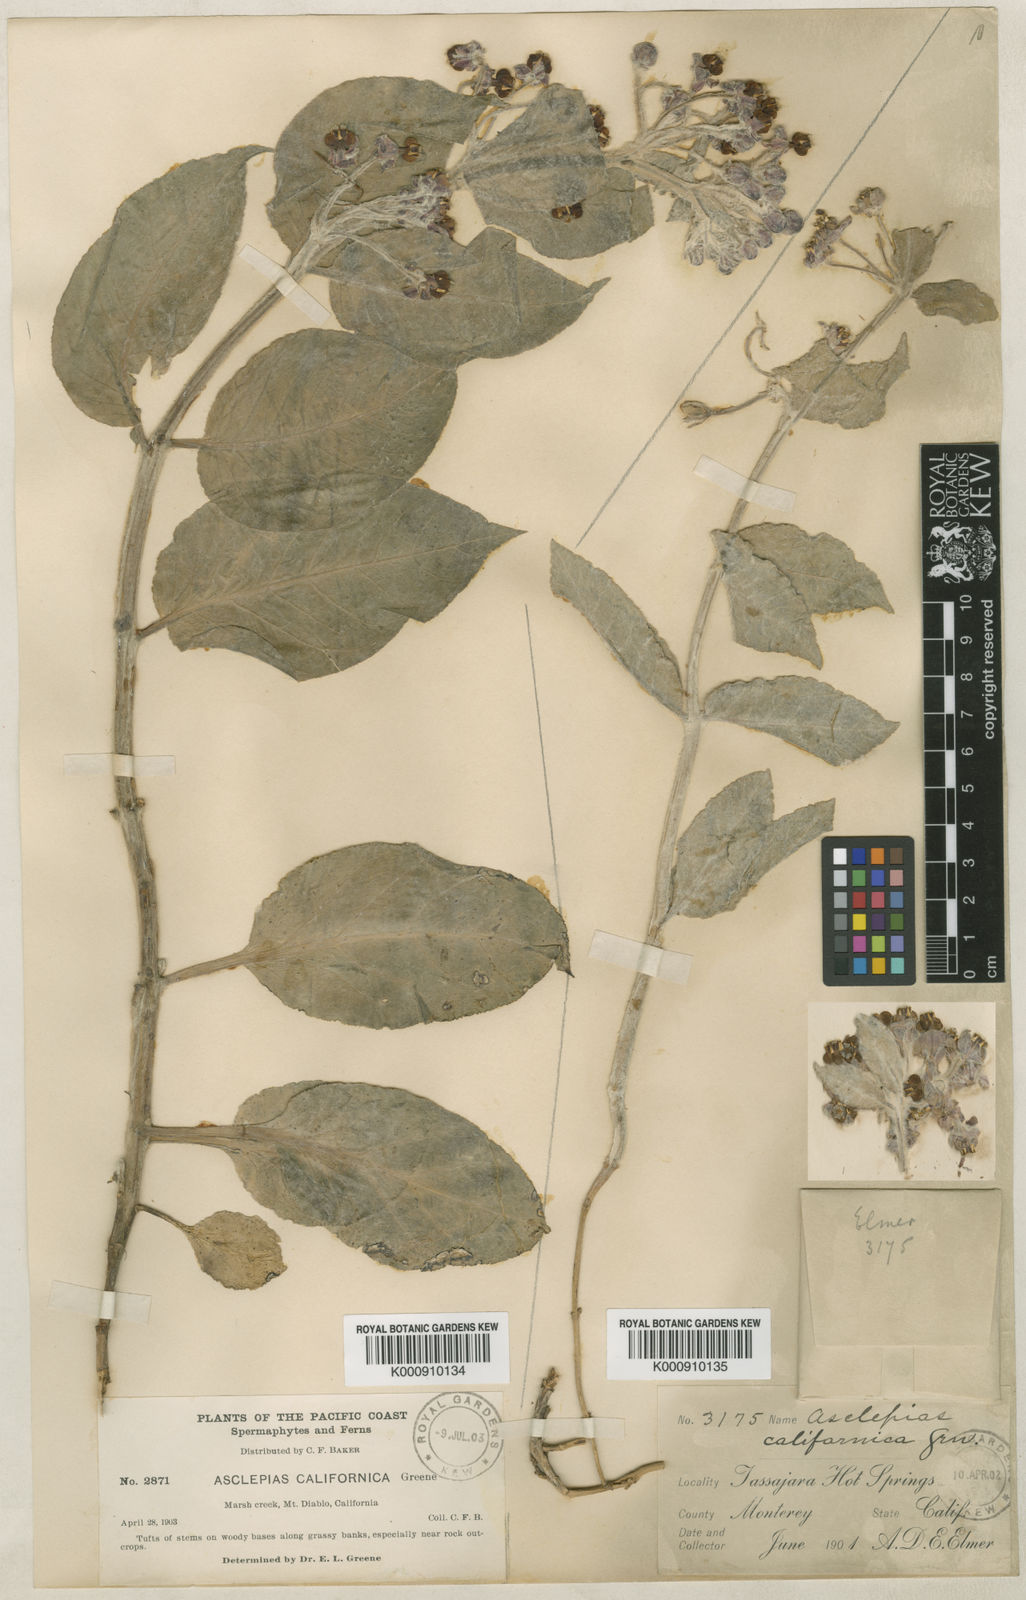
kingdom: Plantae
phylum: Tracheophyta
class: Magnoliopsida
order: Gentianales
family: Apocynaceae
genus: Asclepias
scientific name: Asclepias californica
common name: California milkweed
